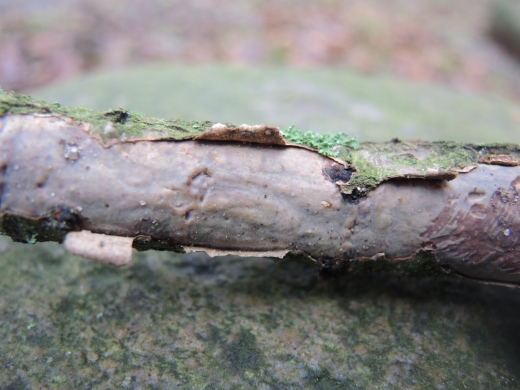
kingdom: Fungi
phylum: Basidiomycota
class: Agaricomycetes
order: Corticiales
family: Vuilleminiaceae
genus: Vuilleminia
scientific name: Vuilleminia comedens
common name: almindelig barksprænger
